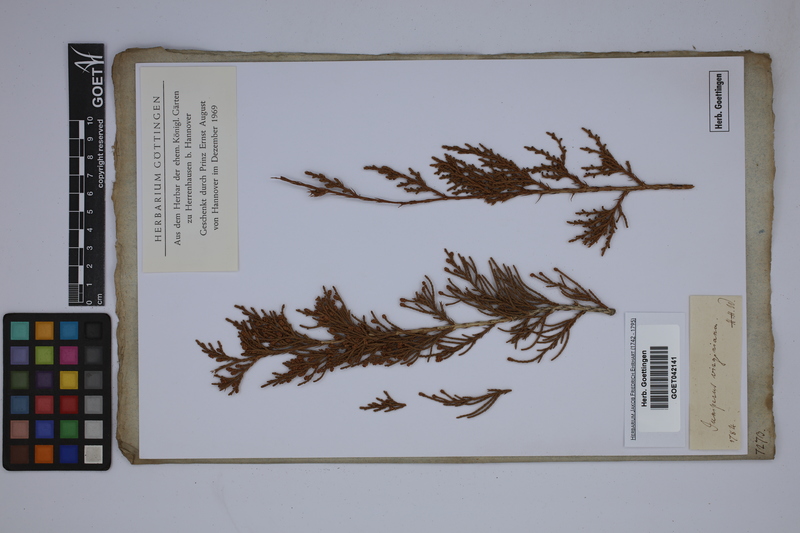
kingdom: Plantae
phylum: Tracheophyta
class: Pinopsida
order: Pinales
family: Cupressaceae
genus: Juniperus
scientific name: Juniperus virginiana
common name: Red juniper
